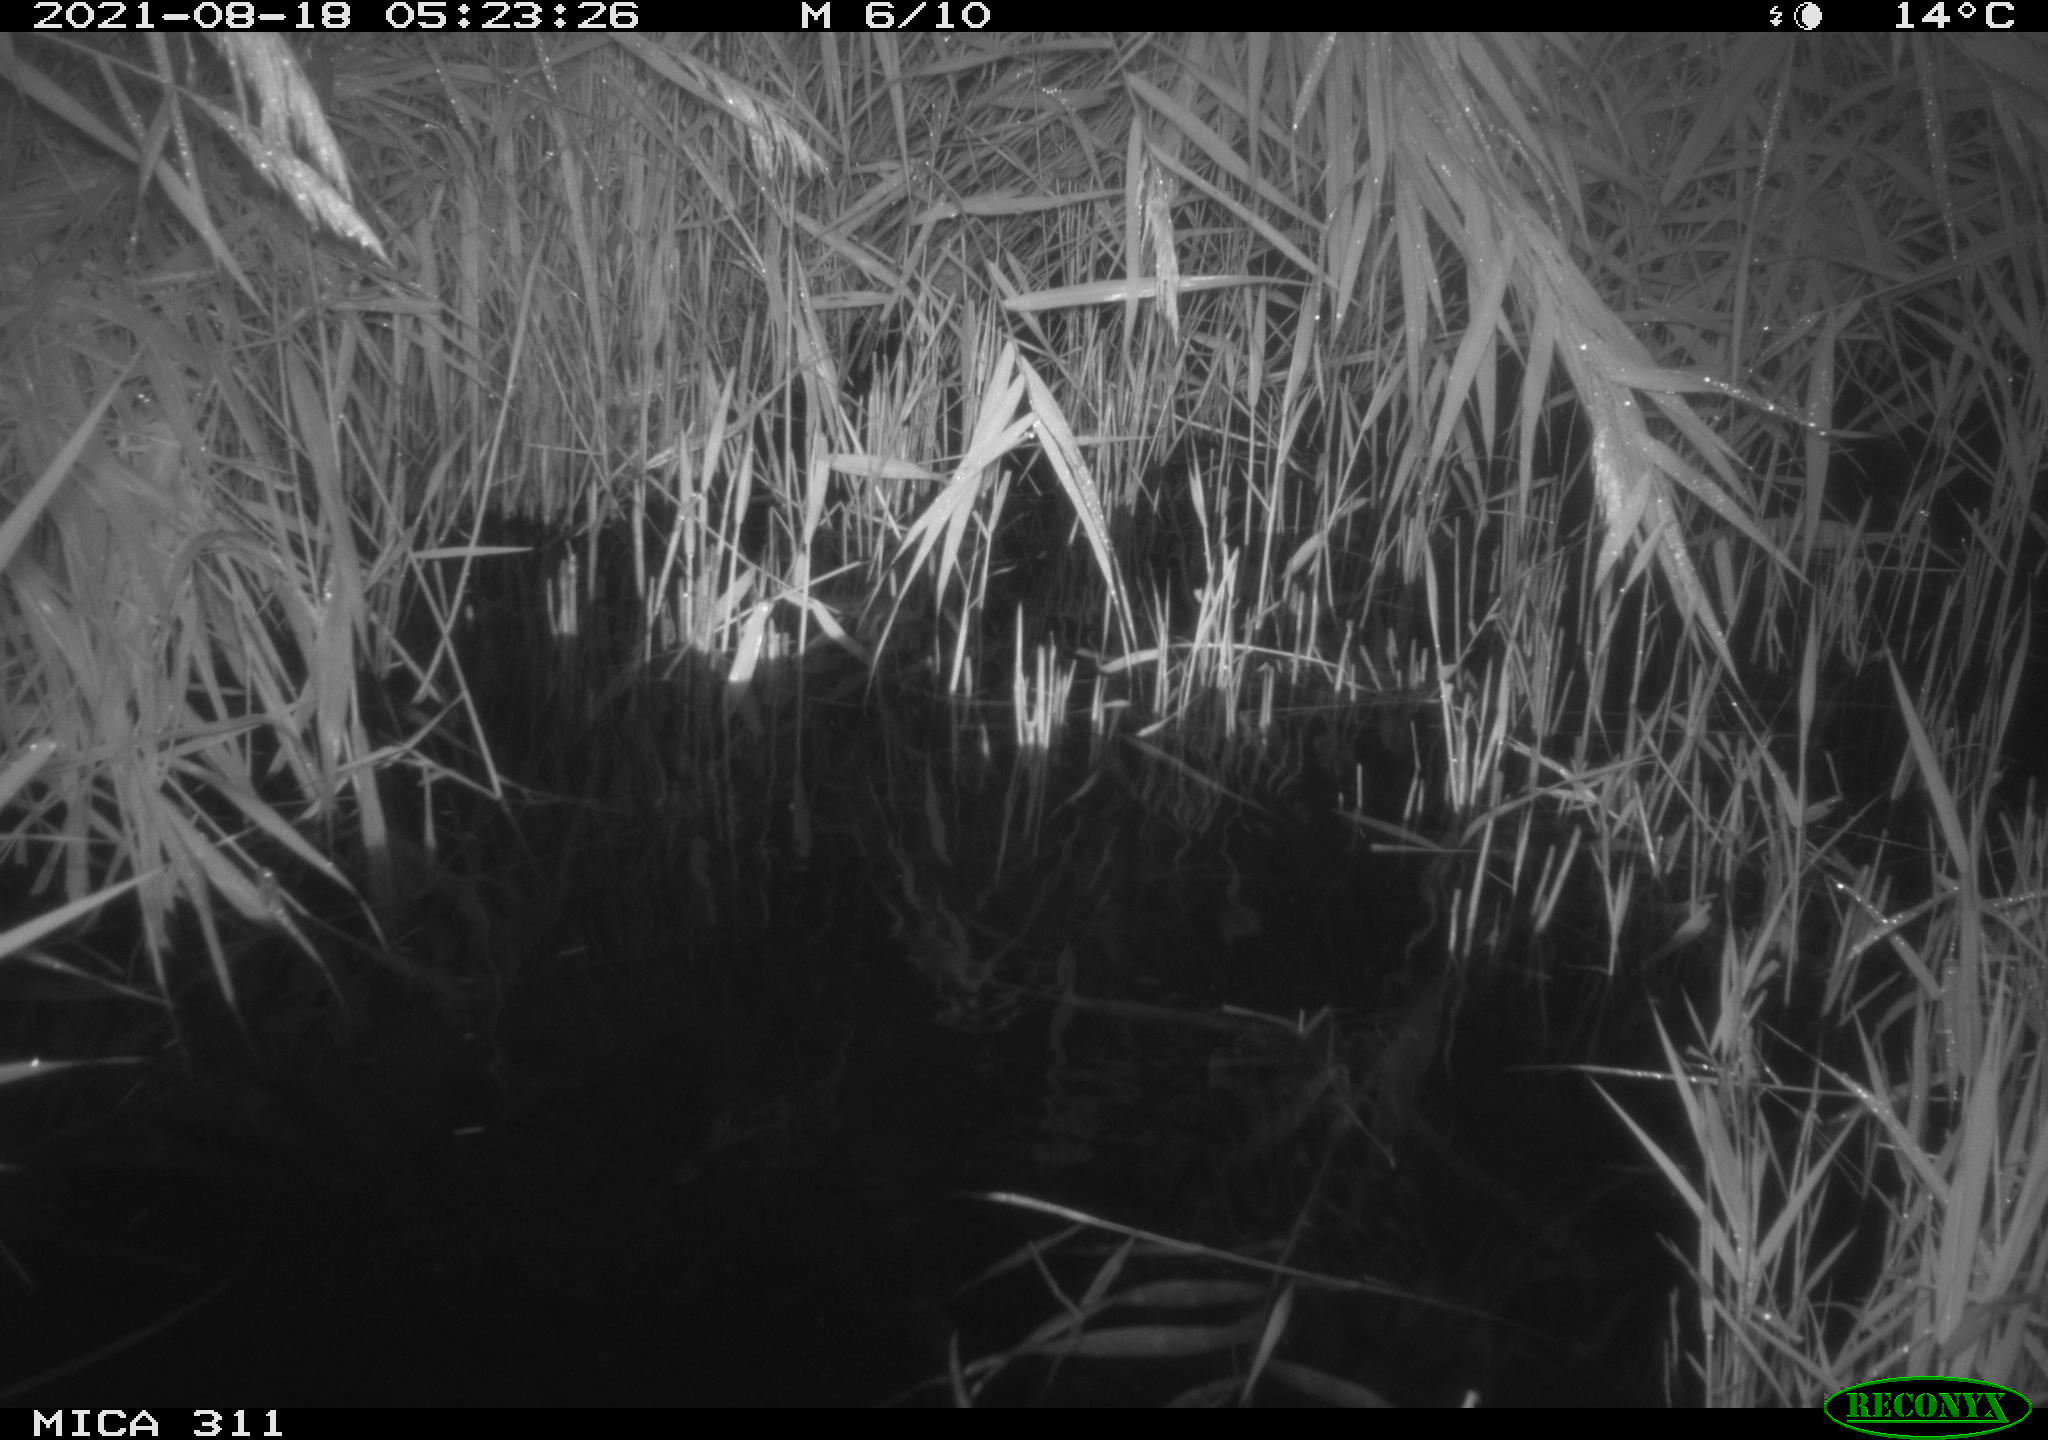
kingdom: Animalia
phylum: Chordata
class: Mammalia
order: Rodentia
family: Muridae
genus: Rattus
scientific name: Rattus norvegicus
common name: Brown rat
